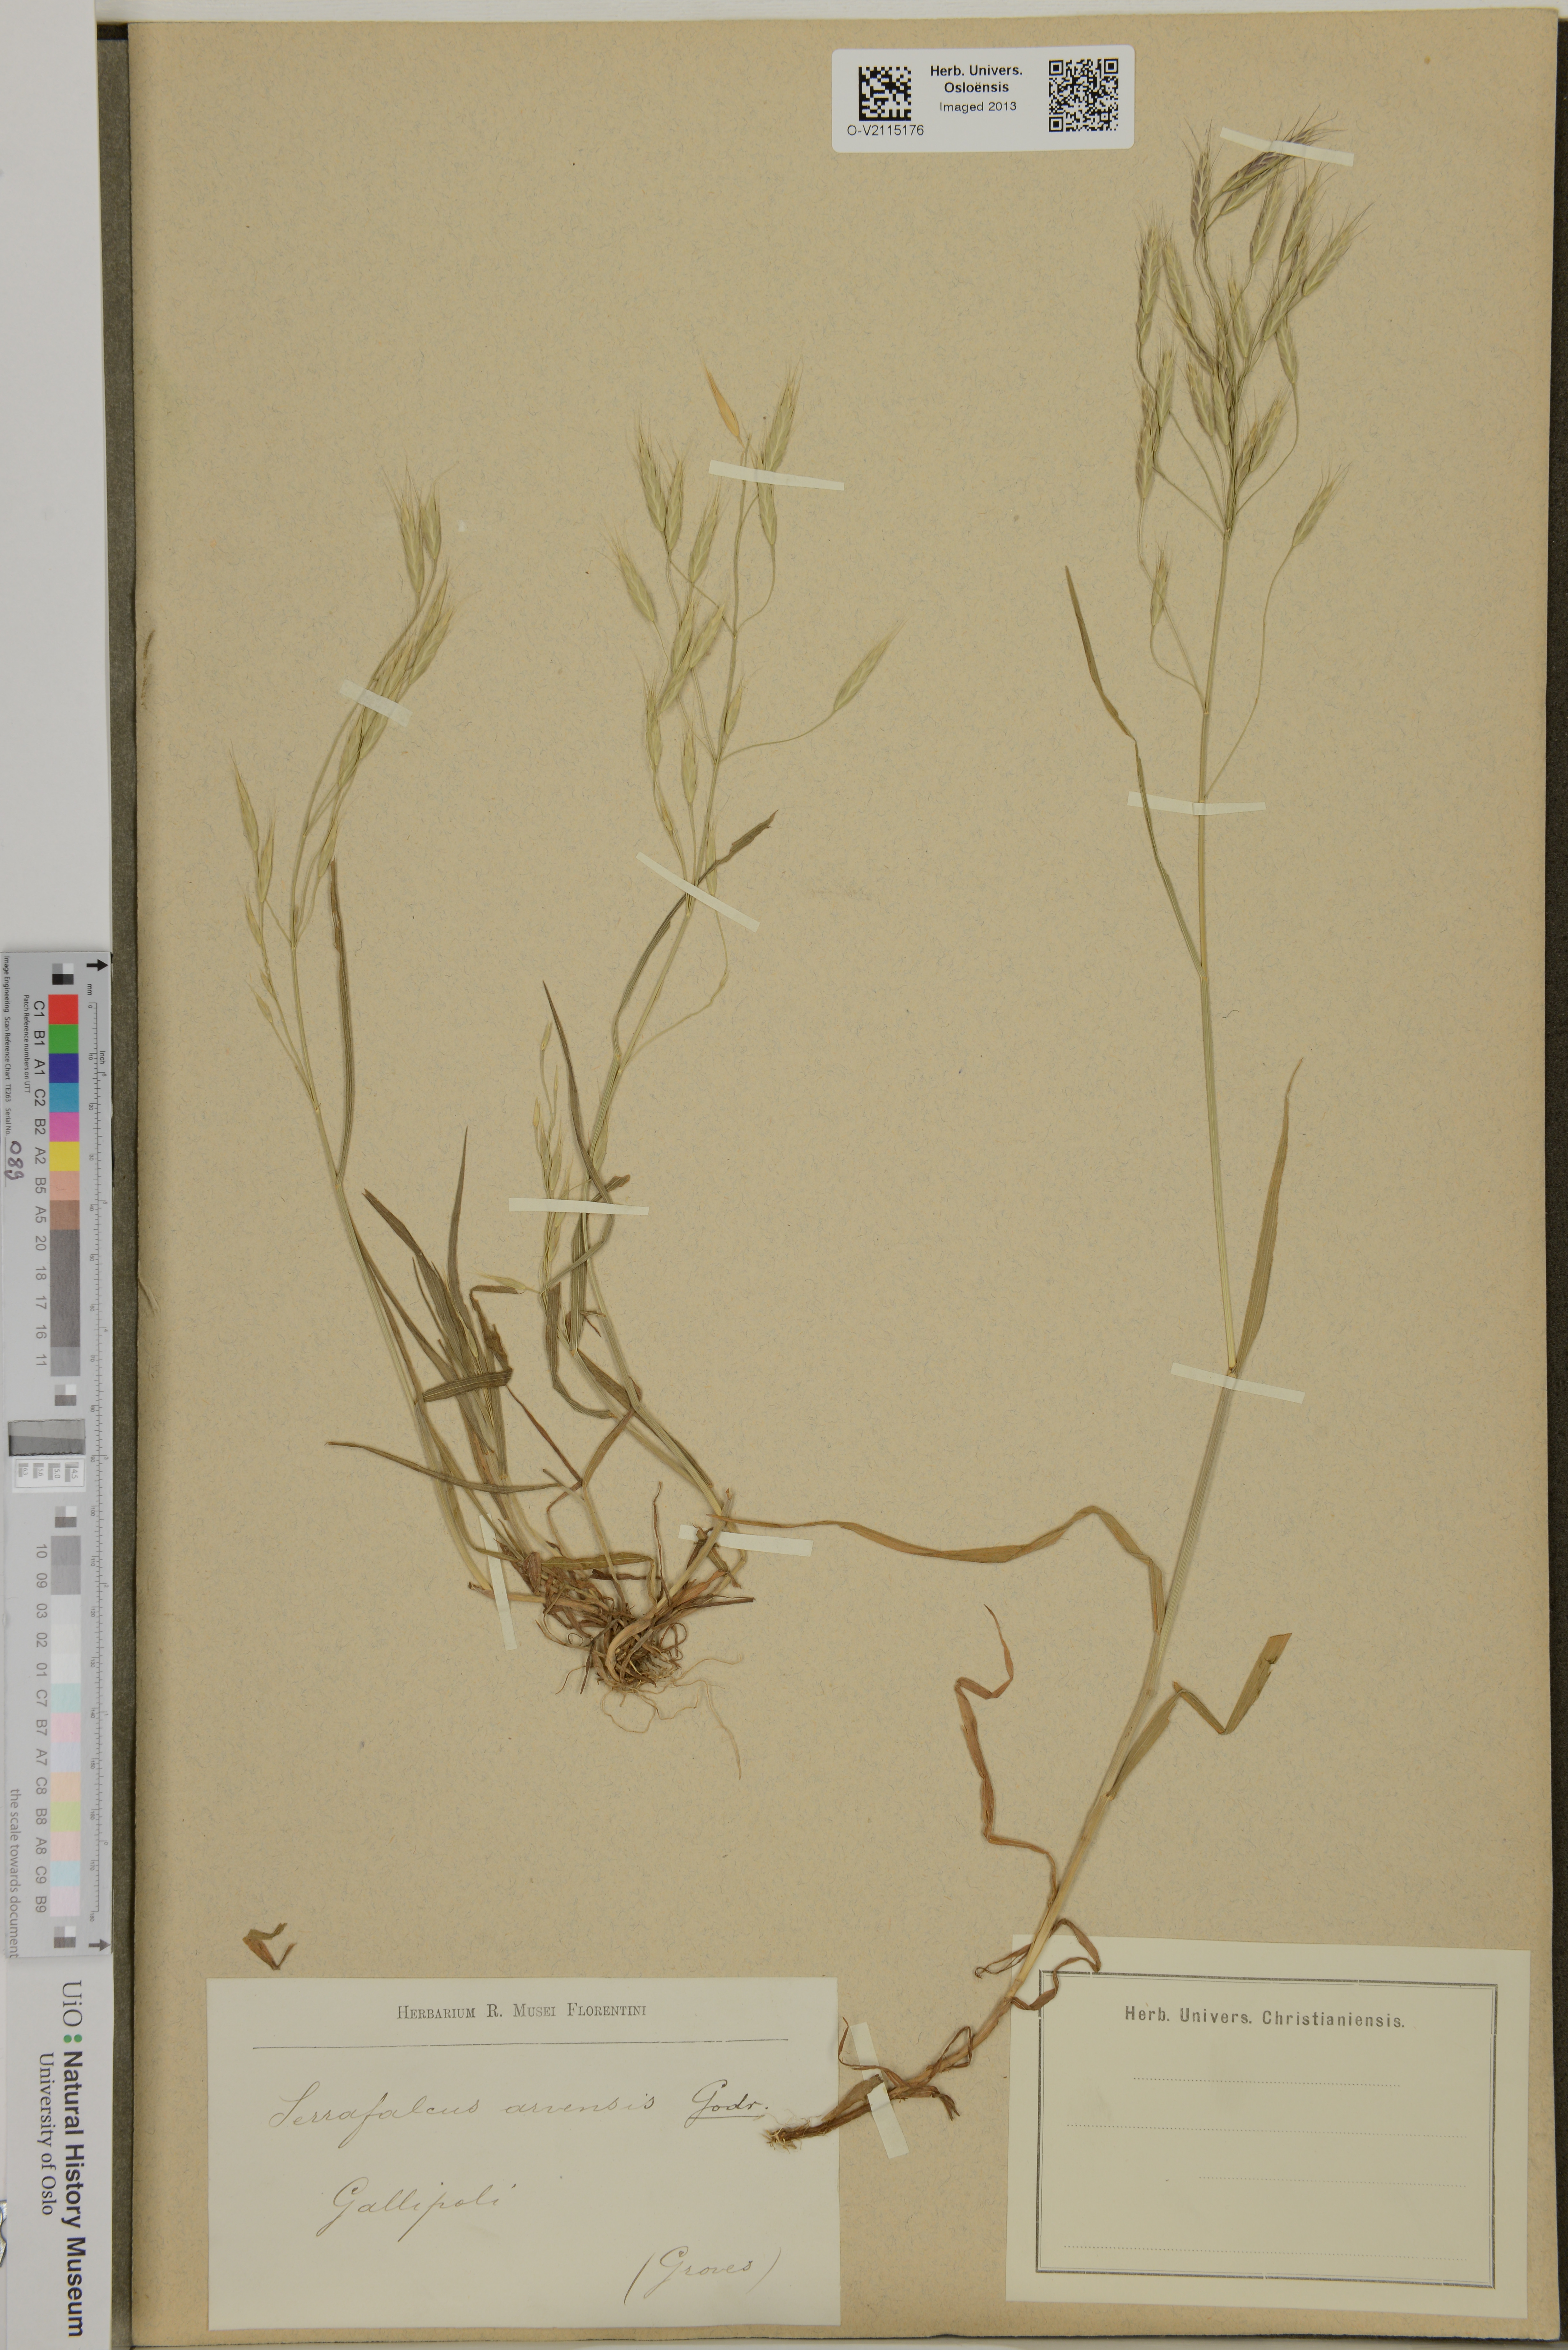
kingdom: Plantae
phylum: Tracheophyta
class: Liliopsida
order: Poales
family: Poaceae
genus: Bromus
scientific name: Bromus arvensis
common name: Field brome
